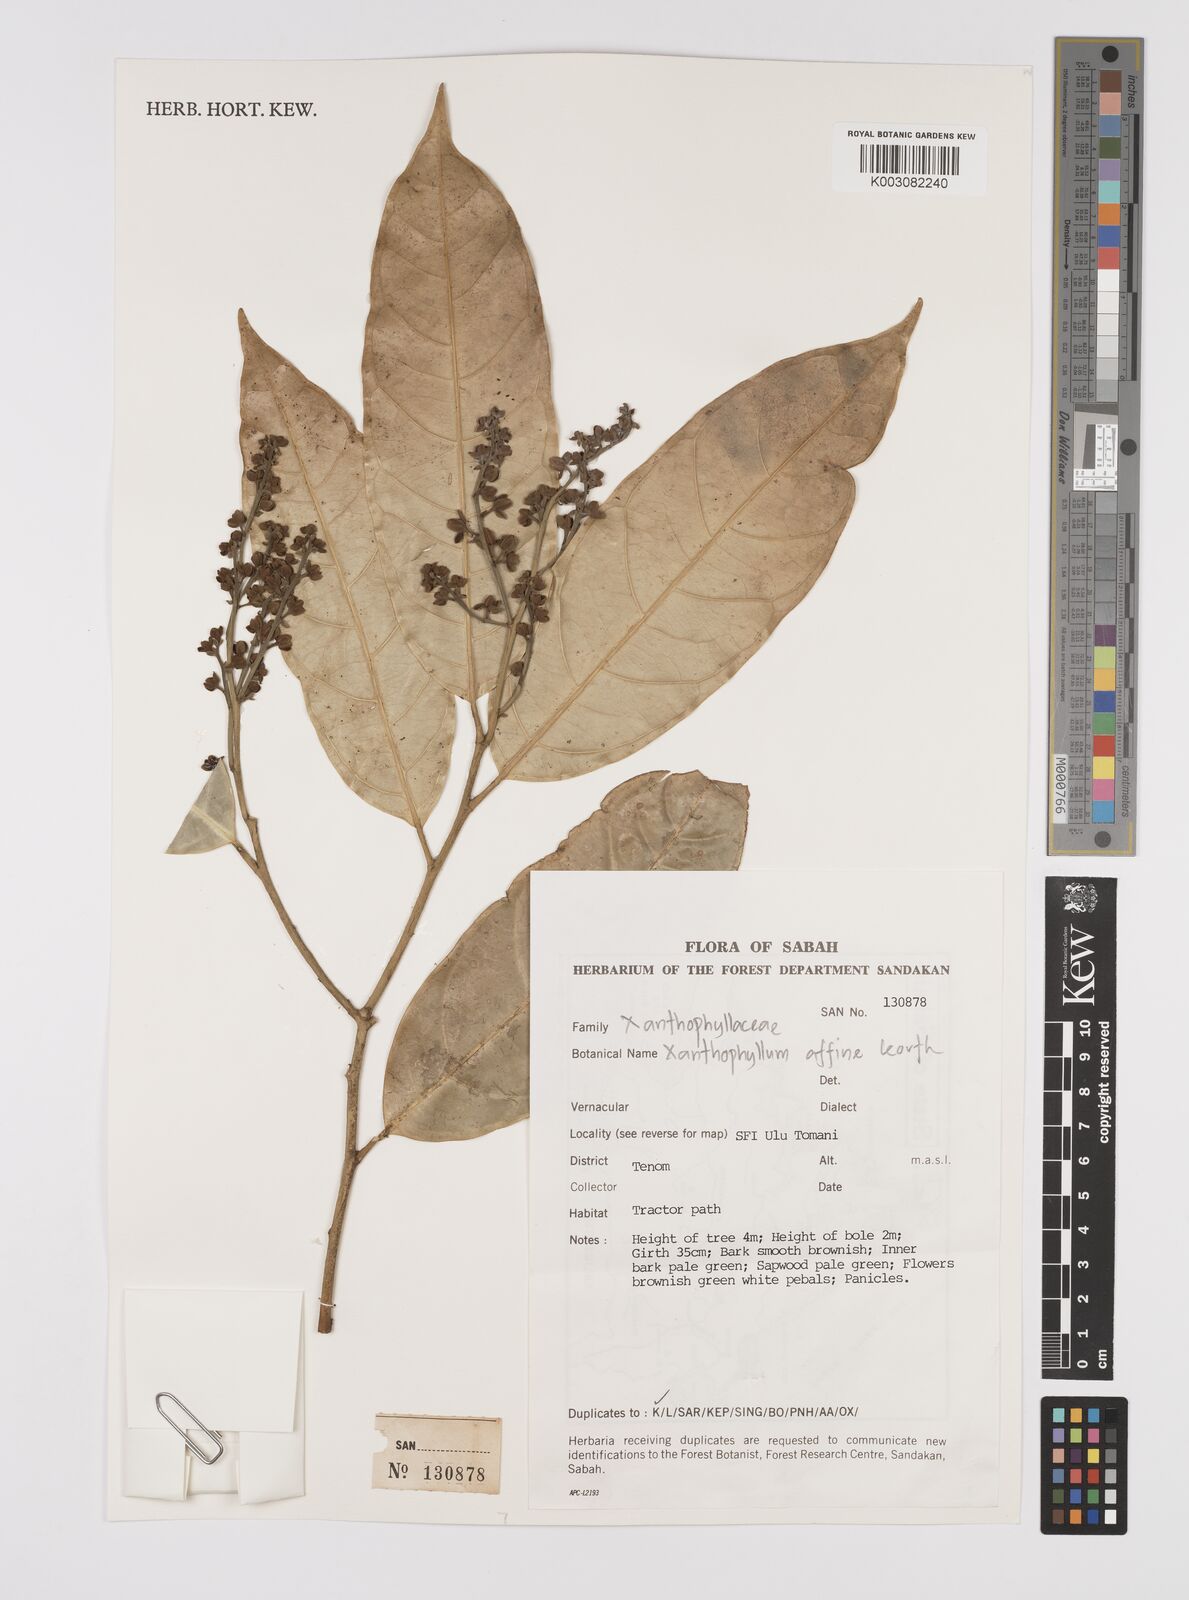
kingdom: Plantae
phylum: Tracheophyta
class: Magnoliopsida
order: Fabales
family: Polygalaceae
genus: Xanthophyllum
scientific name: Xanthophyllum flavescens
